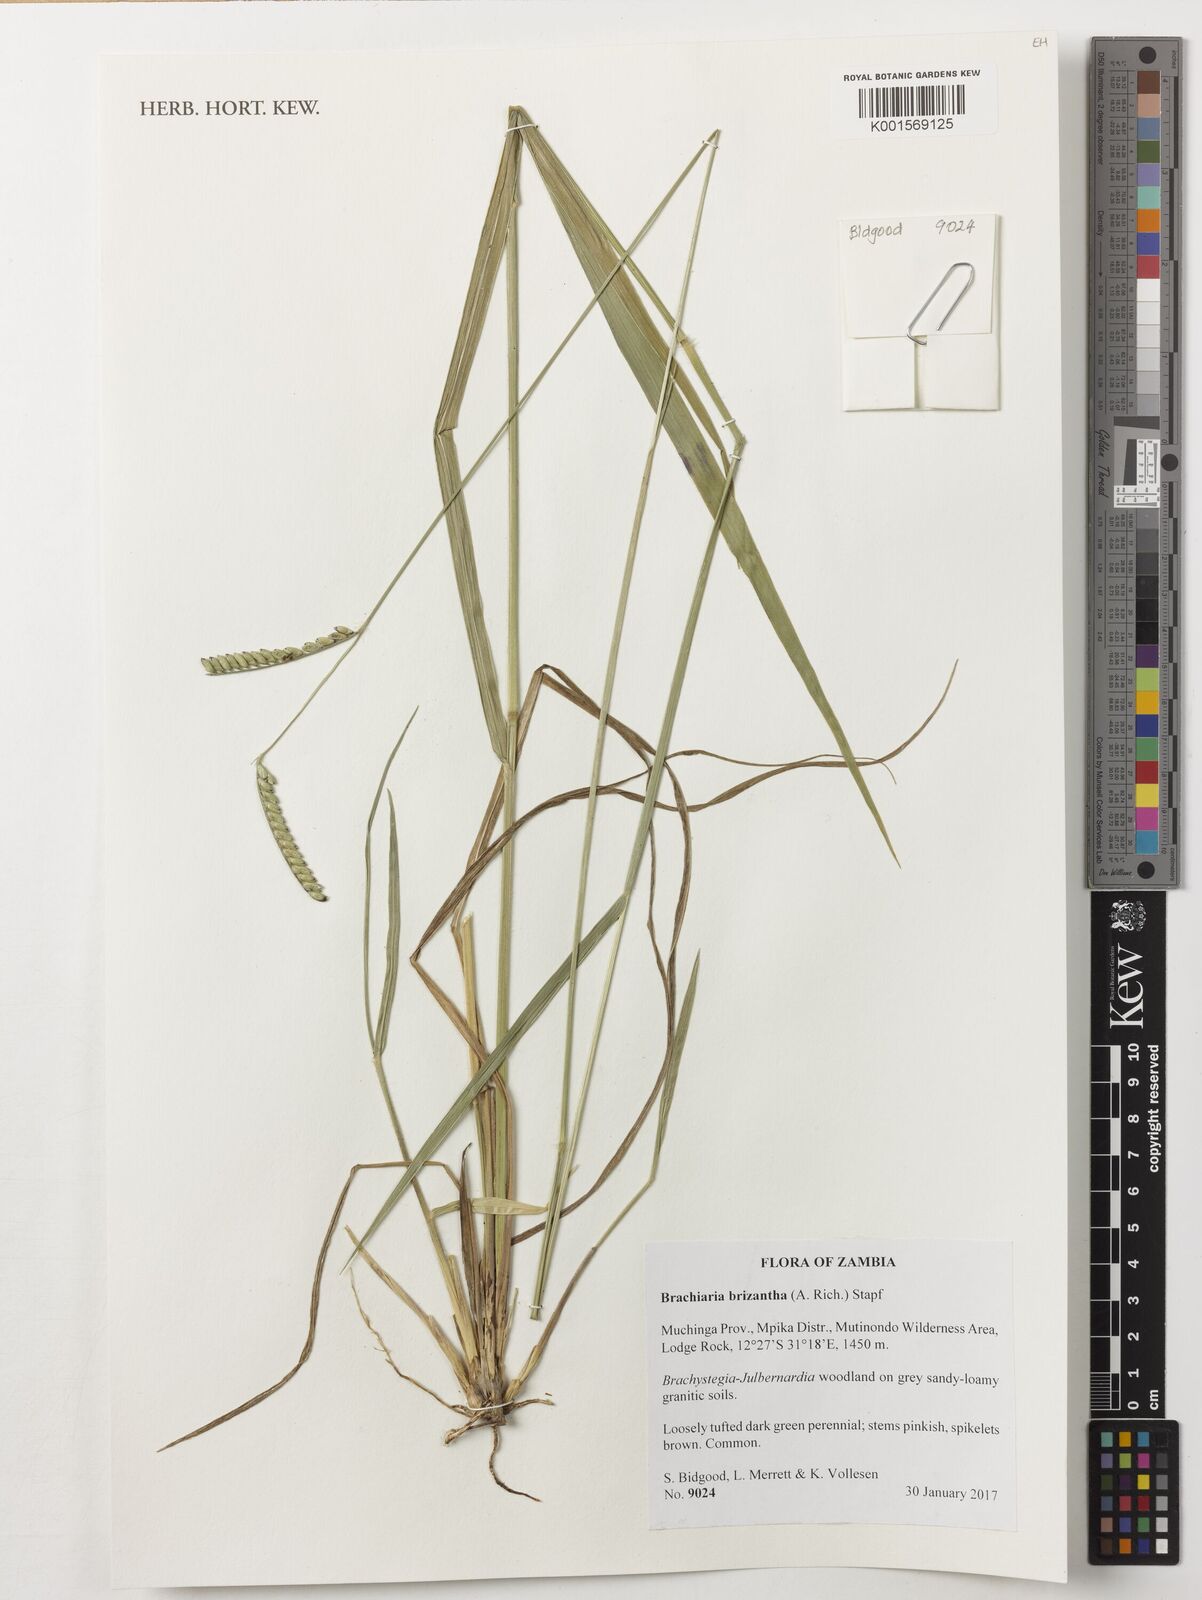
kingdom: Plantae
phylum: Tracheophyta
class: Liliopsida
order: Poales
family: Poaceae
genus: Urochloa
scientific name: Urochloa brizantha
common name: Palisade signalgrass
